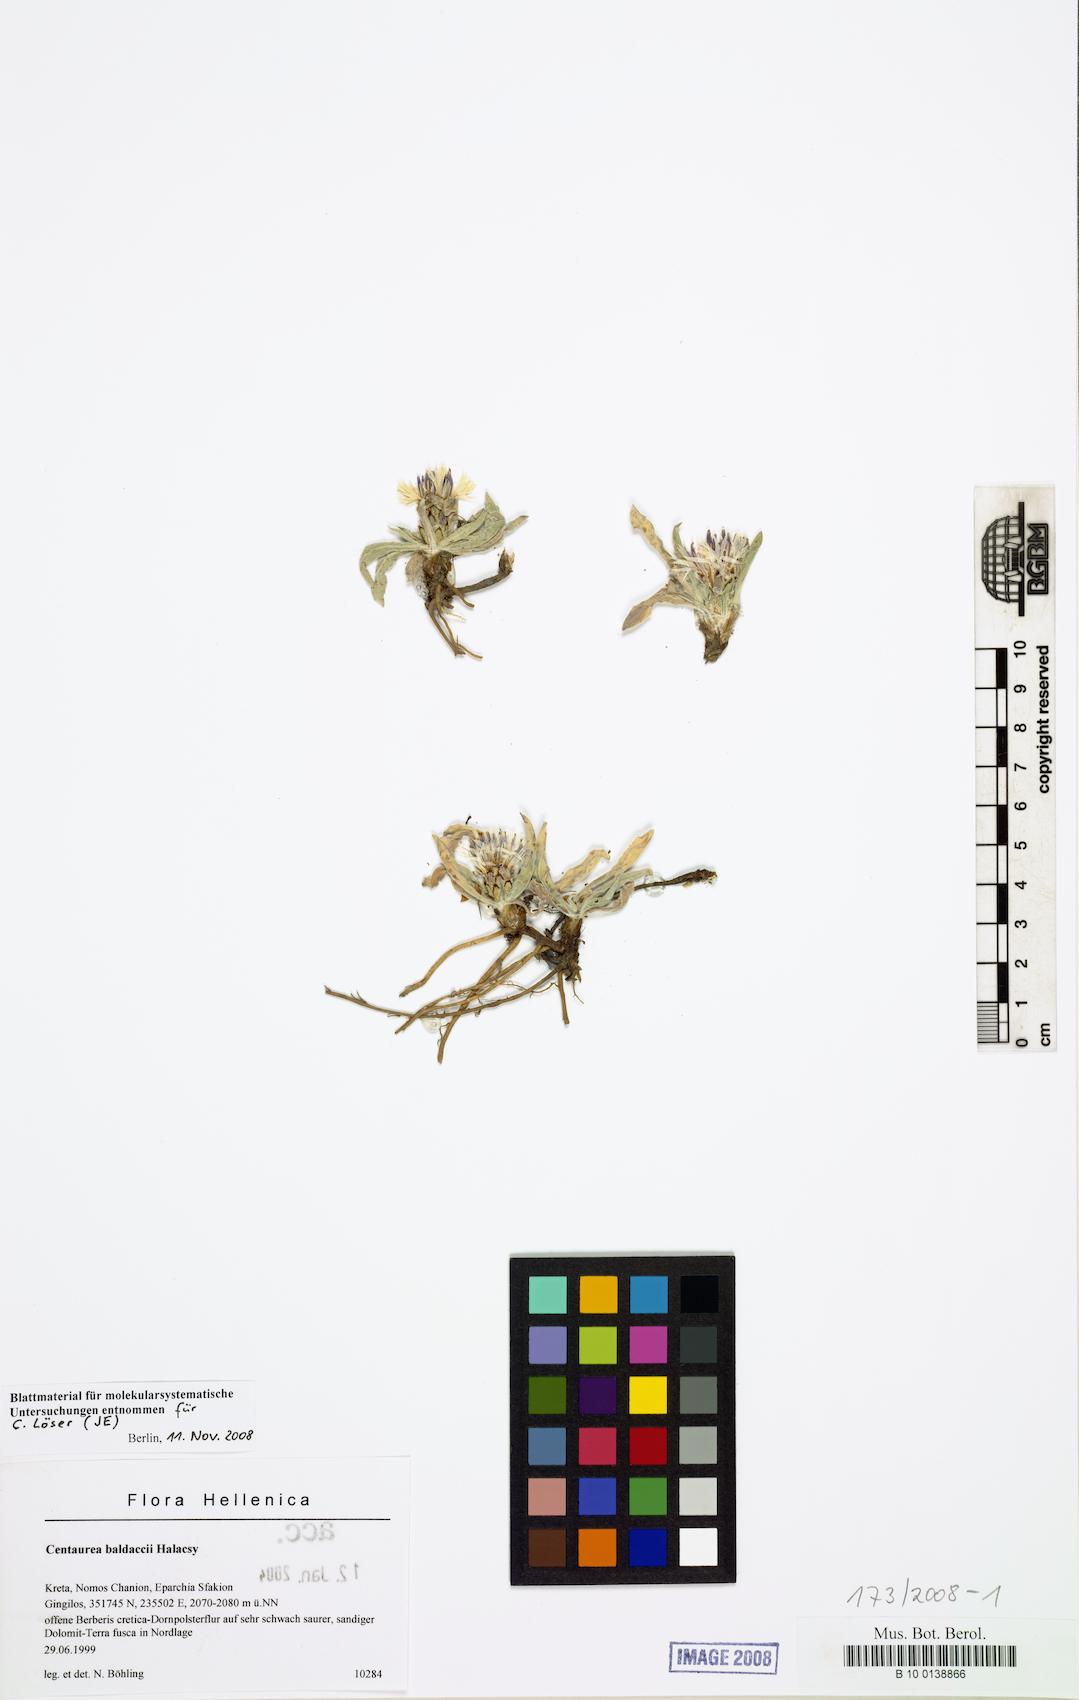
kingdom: Plantae
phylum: Tracheophyta
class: Magnoliopsida
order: Asterales
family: Asteraceae
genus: Centaurea
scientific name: Centaurea baldaccii
